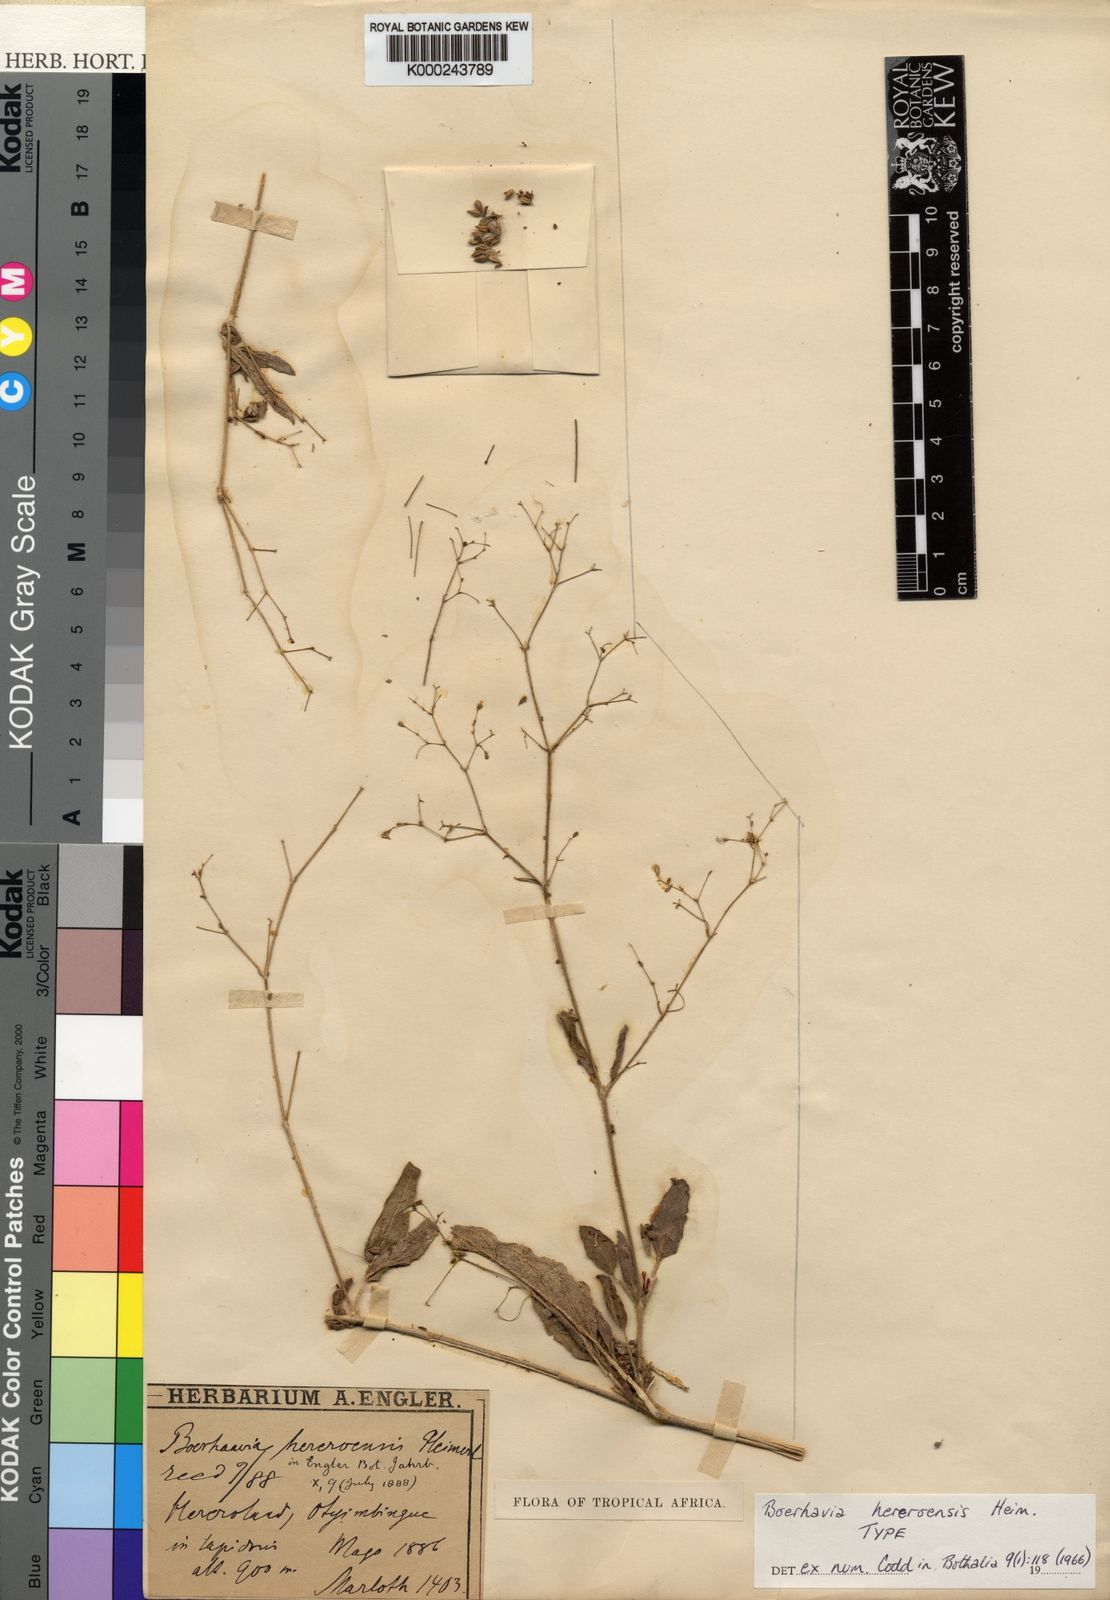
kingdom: Plantae
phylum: Tracheophyta
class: Magnoliopsida
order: Caryophyllales
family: Nyctaginaceae
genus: Boerhavia
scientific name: Boerhavia hereroensis
